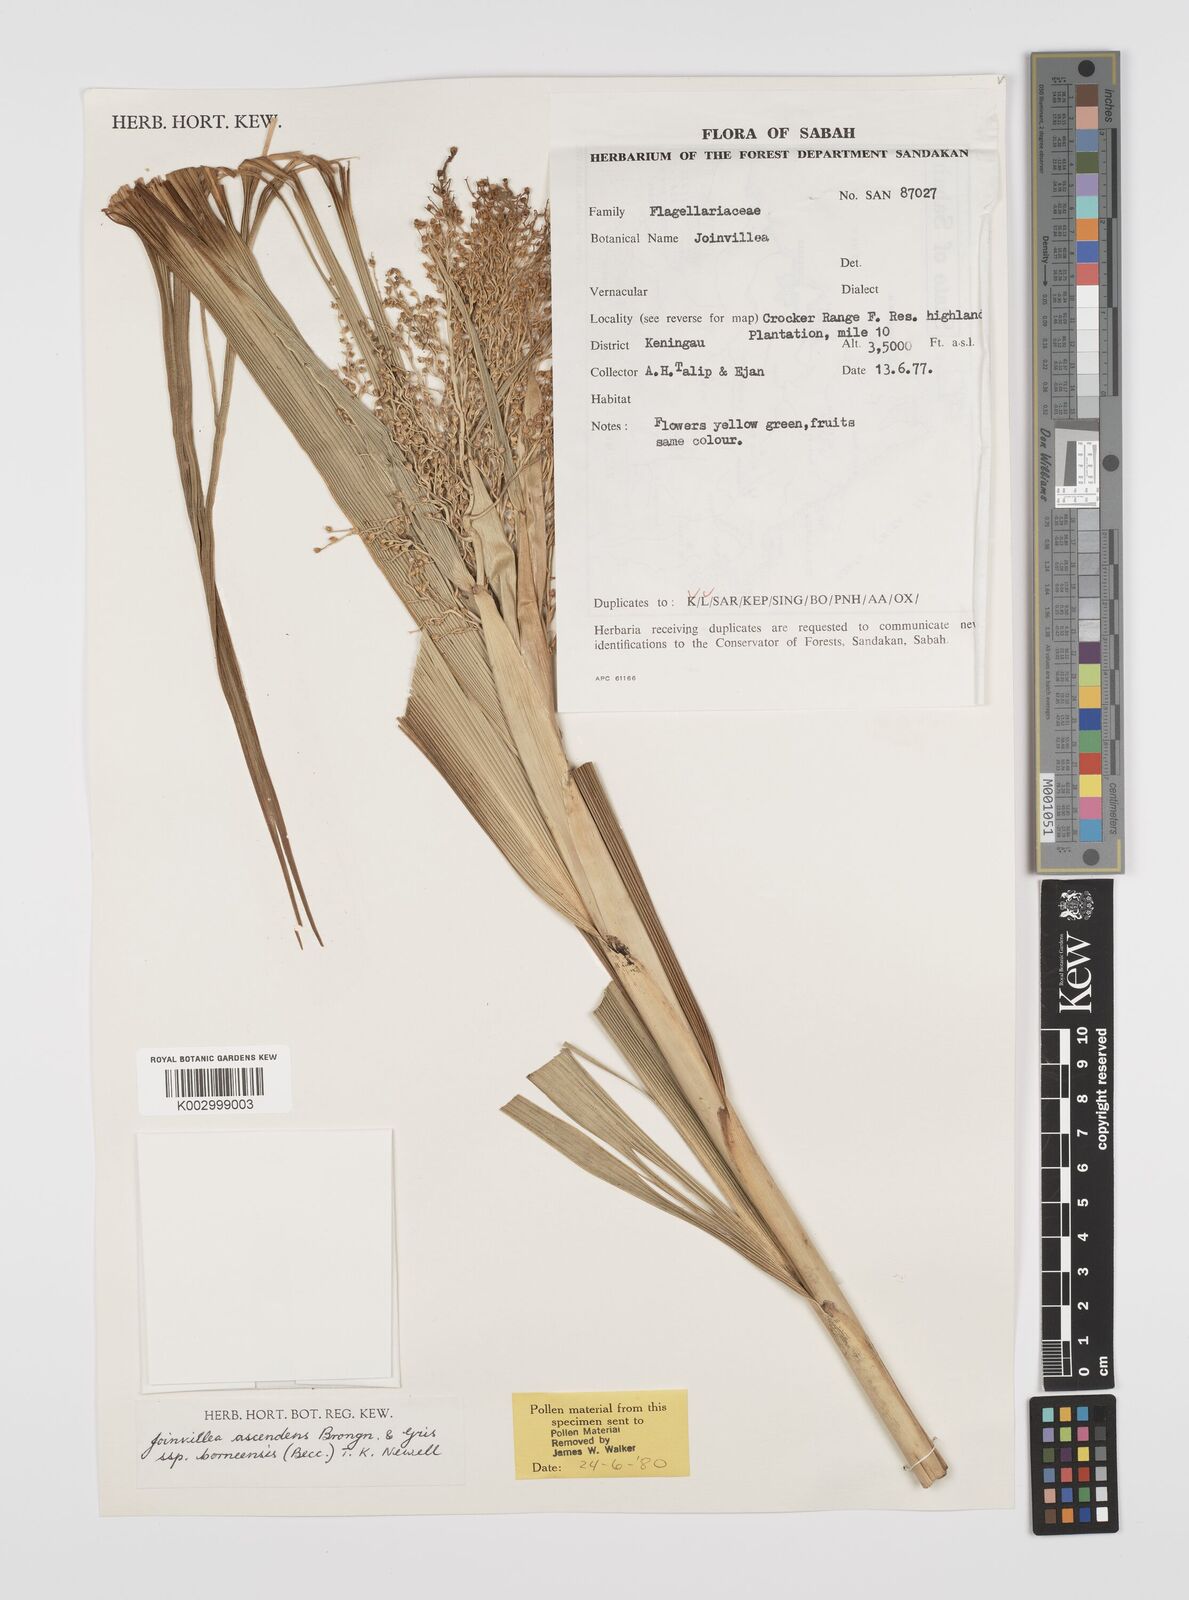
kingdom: Plantae
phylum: Tracheophyta
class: Liliopsida
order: Poales
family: Joinvilleaceae
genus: Joinvillea
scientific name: Joinvillea borneensis
